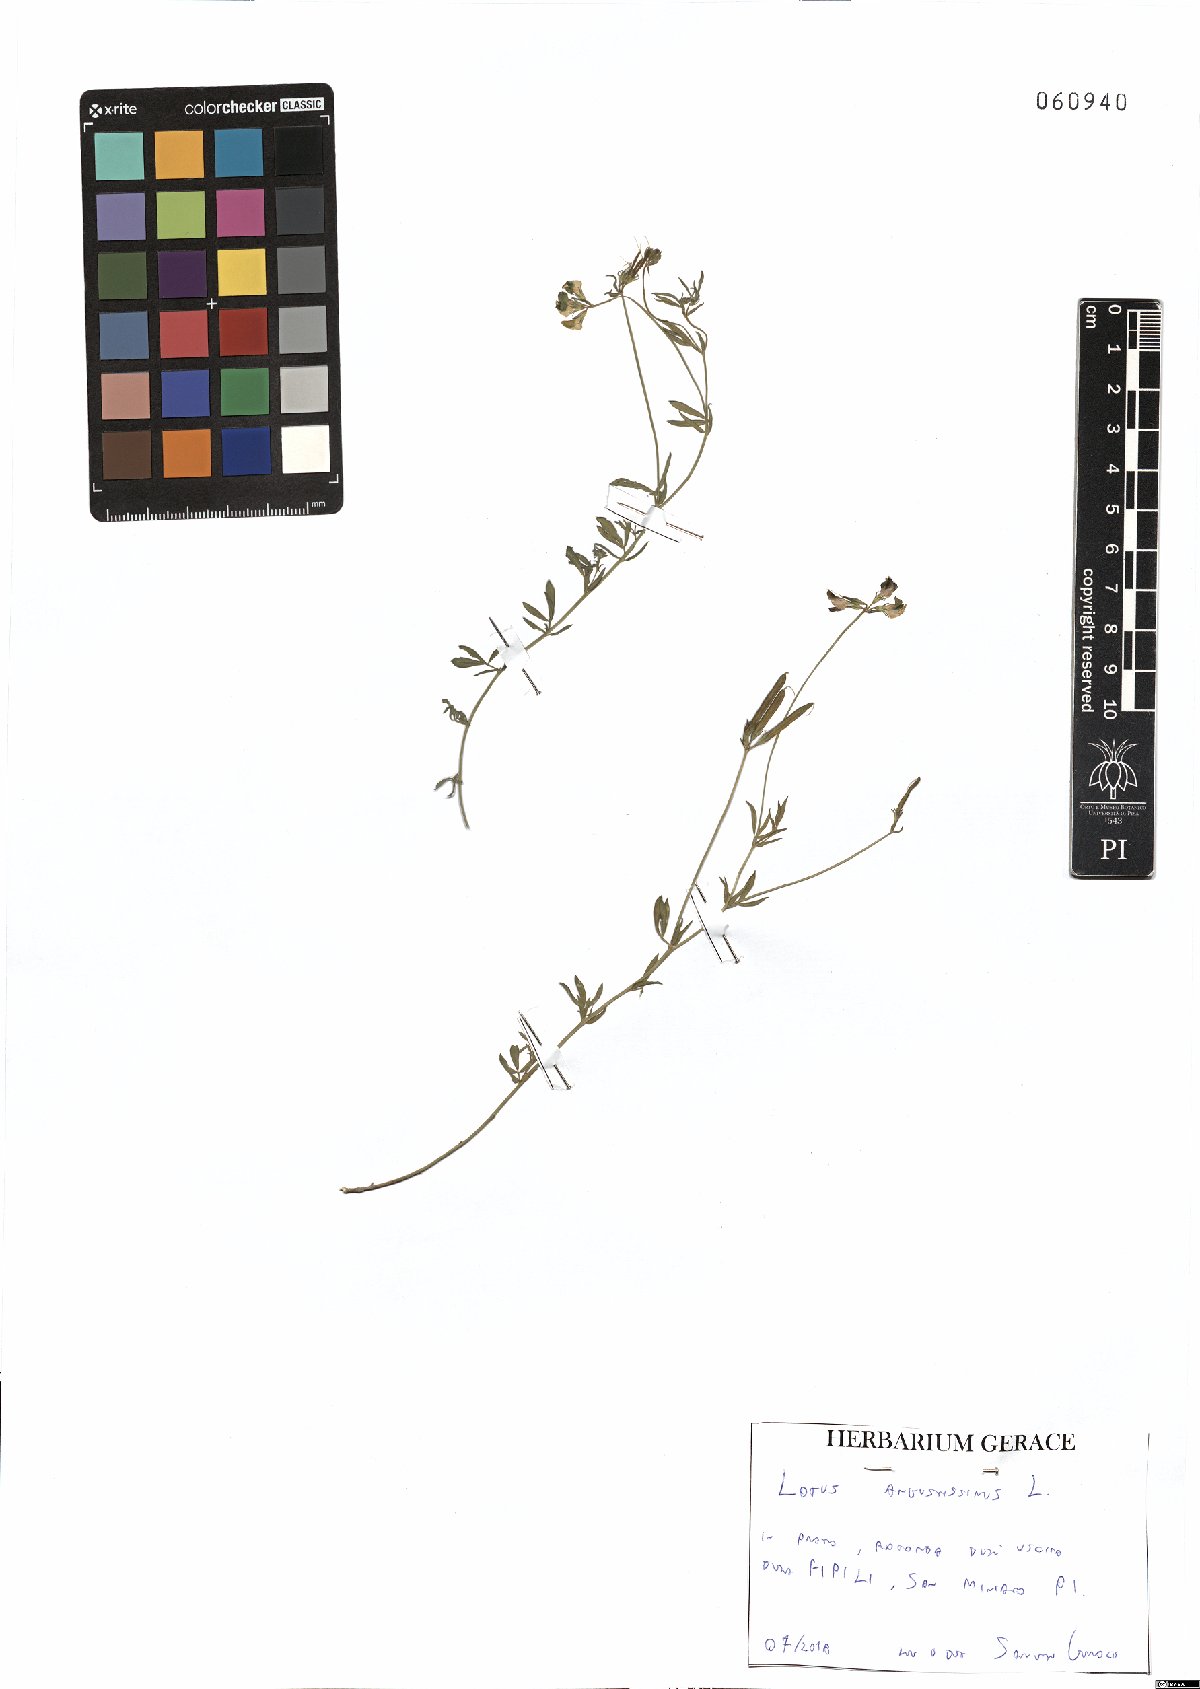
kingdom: Plantae
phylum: Tracheophyta
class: Magnoliopsida
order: Fabales
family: Fabaceae
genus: Lotus
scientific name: Lotus angustissimus
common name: Slender bird's-foot trefoil
